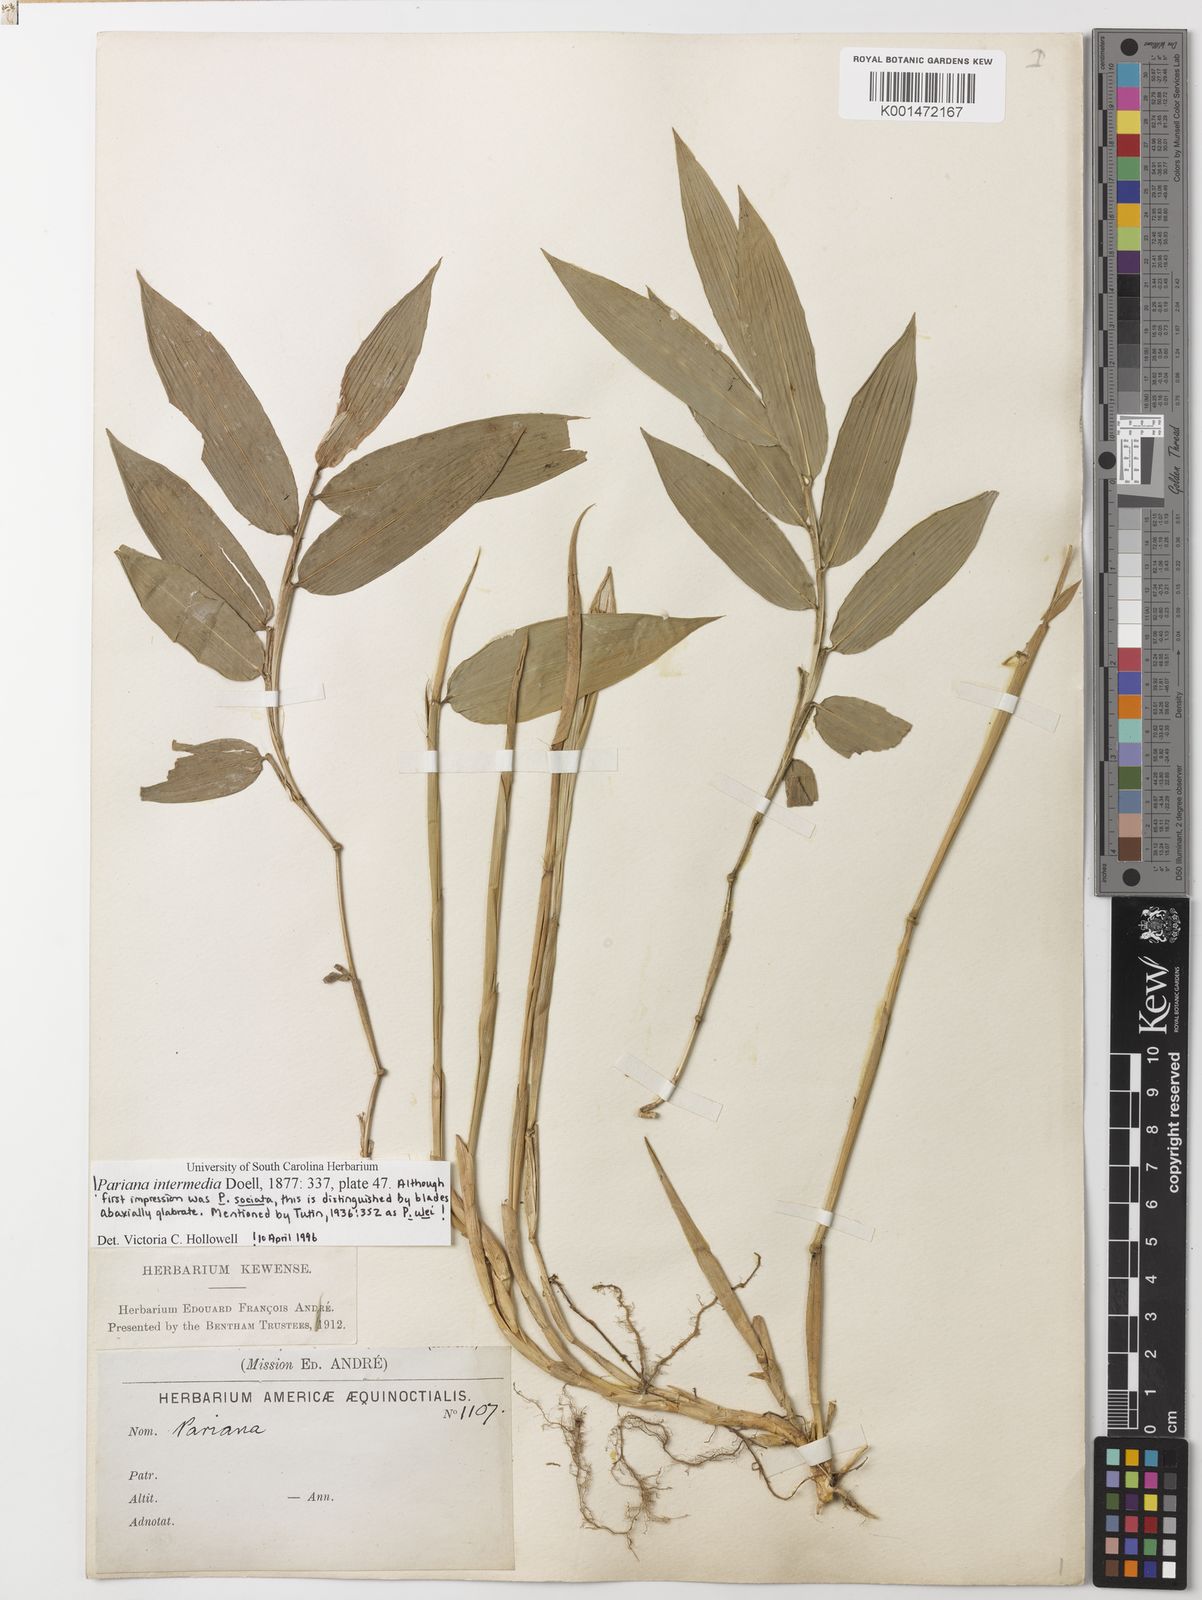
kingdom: Plantae
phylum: Tracheophyta
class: Liliopsida
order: Poales
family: Poaceae
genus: Pariana
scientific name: Pariana campestris
